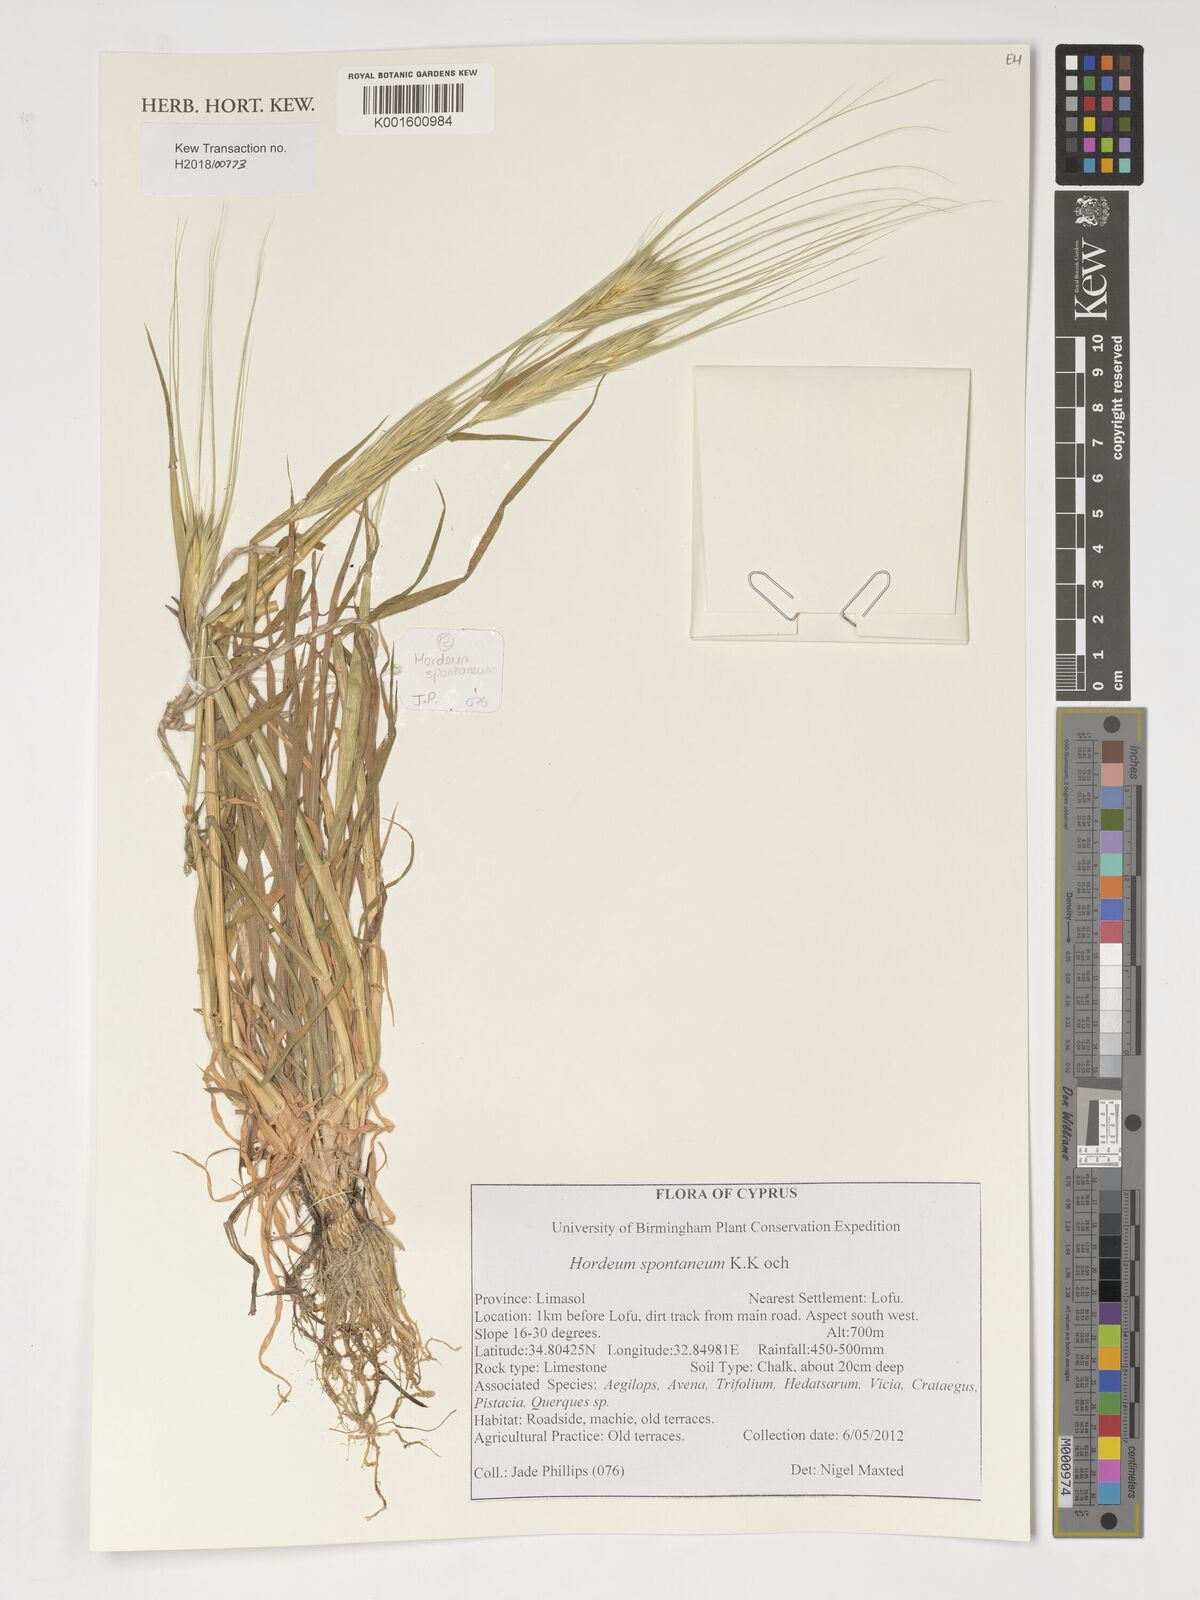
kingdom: Plantae
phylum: Tracheophyta
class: Liliopsida
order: Poales
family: Poaceae
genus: Hordeum
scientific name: Hordeum spontaneum
